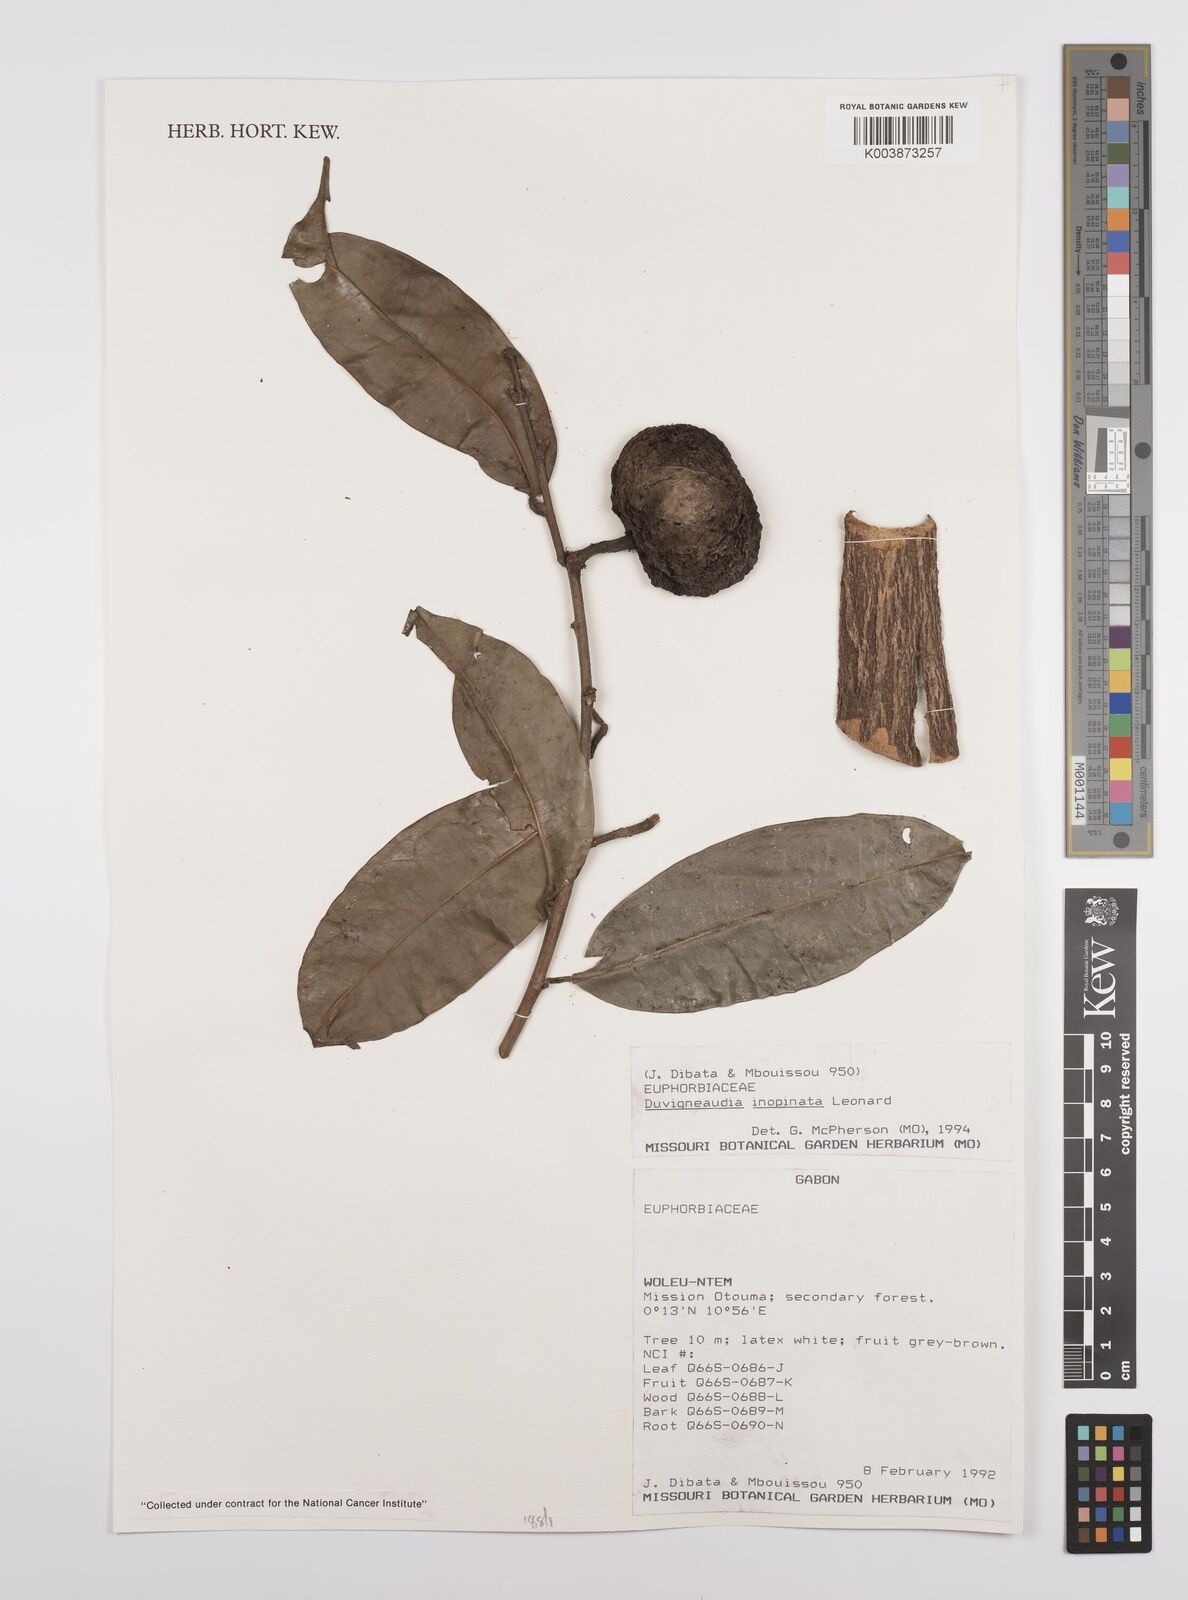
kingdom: Plantae
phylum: Tracheophyta
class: Magnoliopsida
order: Malpighiales
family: Euphorbiaceae
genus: Gymnanthes
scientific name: Gymnanthes inopinata
